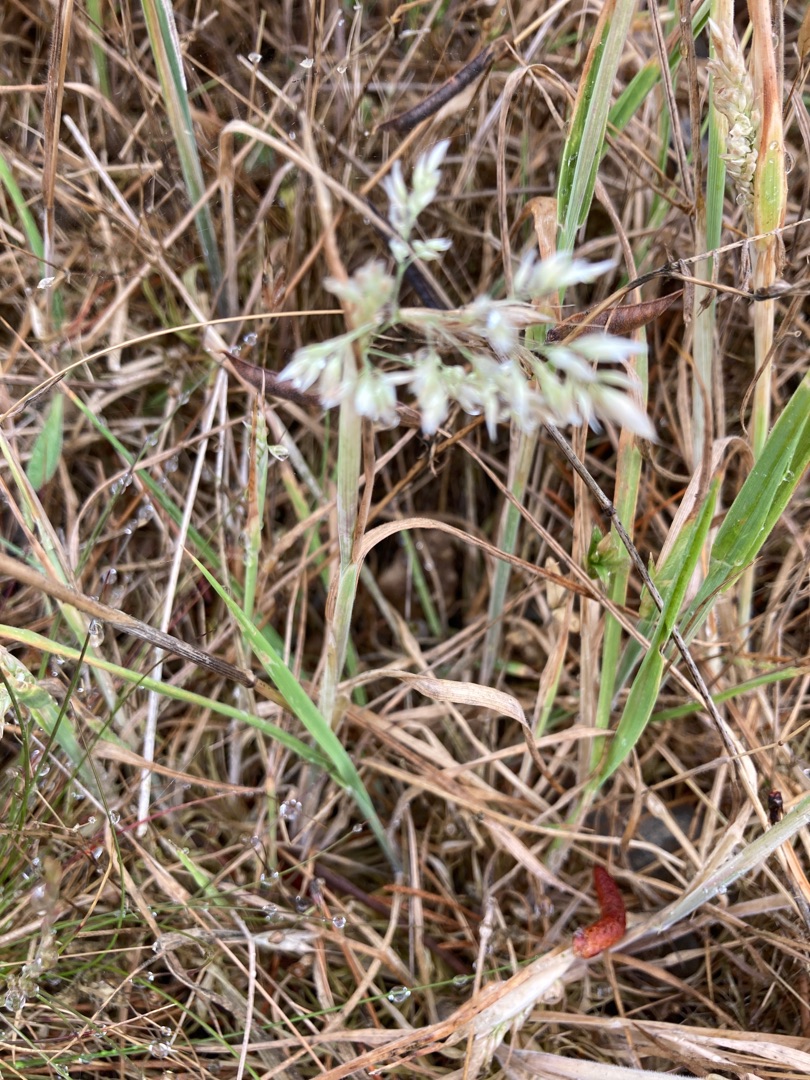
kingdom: Plantae
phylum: Tracheophyta
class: Liliopsida
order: Poales
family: Poaceae
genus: Holcus
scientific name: Holcus lanatus
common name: Fløjlsgræs
